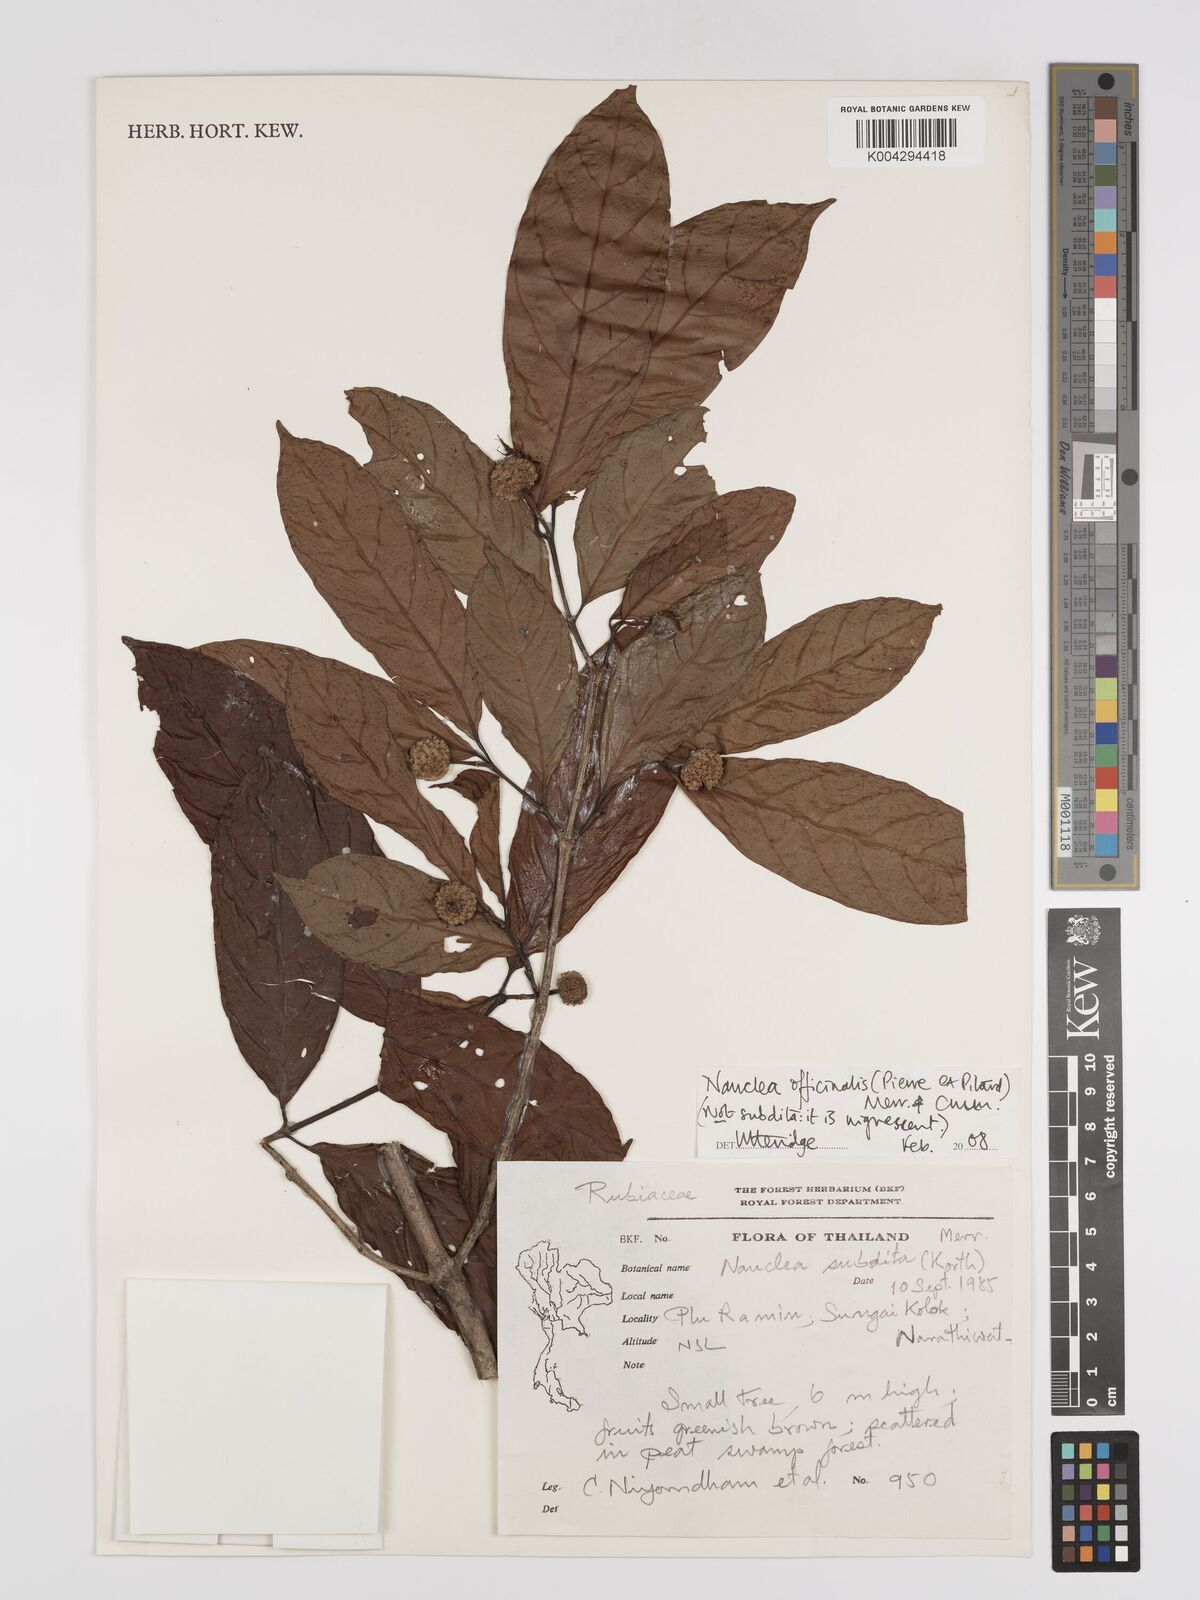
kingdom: Plantae
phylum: Tracheophyta
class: Magnoliopsida
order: Gentianales
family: Rubiaceae
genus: Nauclea
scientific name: Nauclea officinalis
